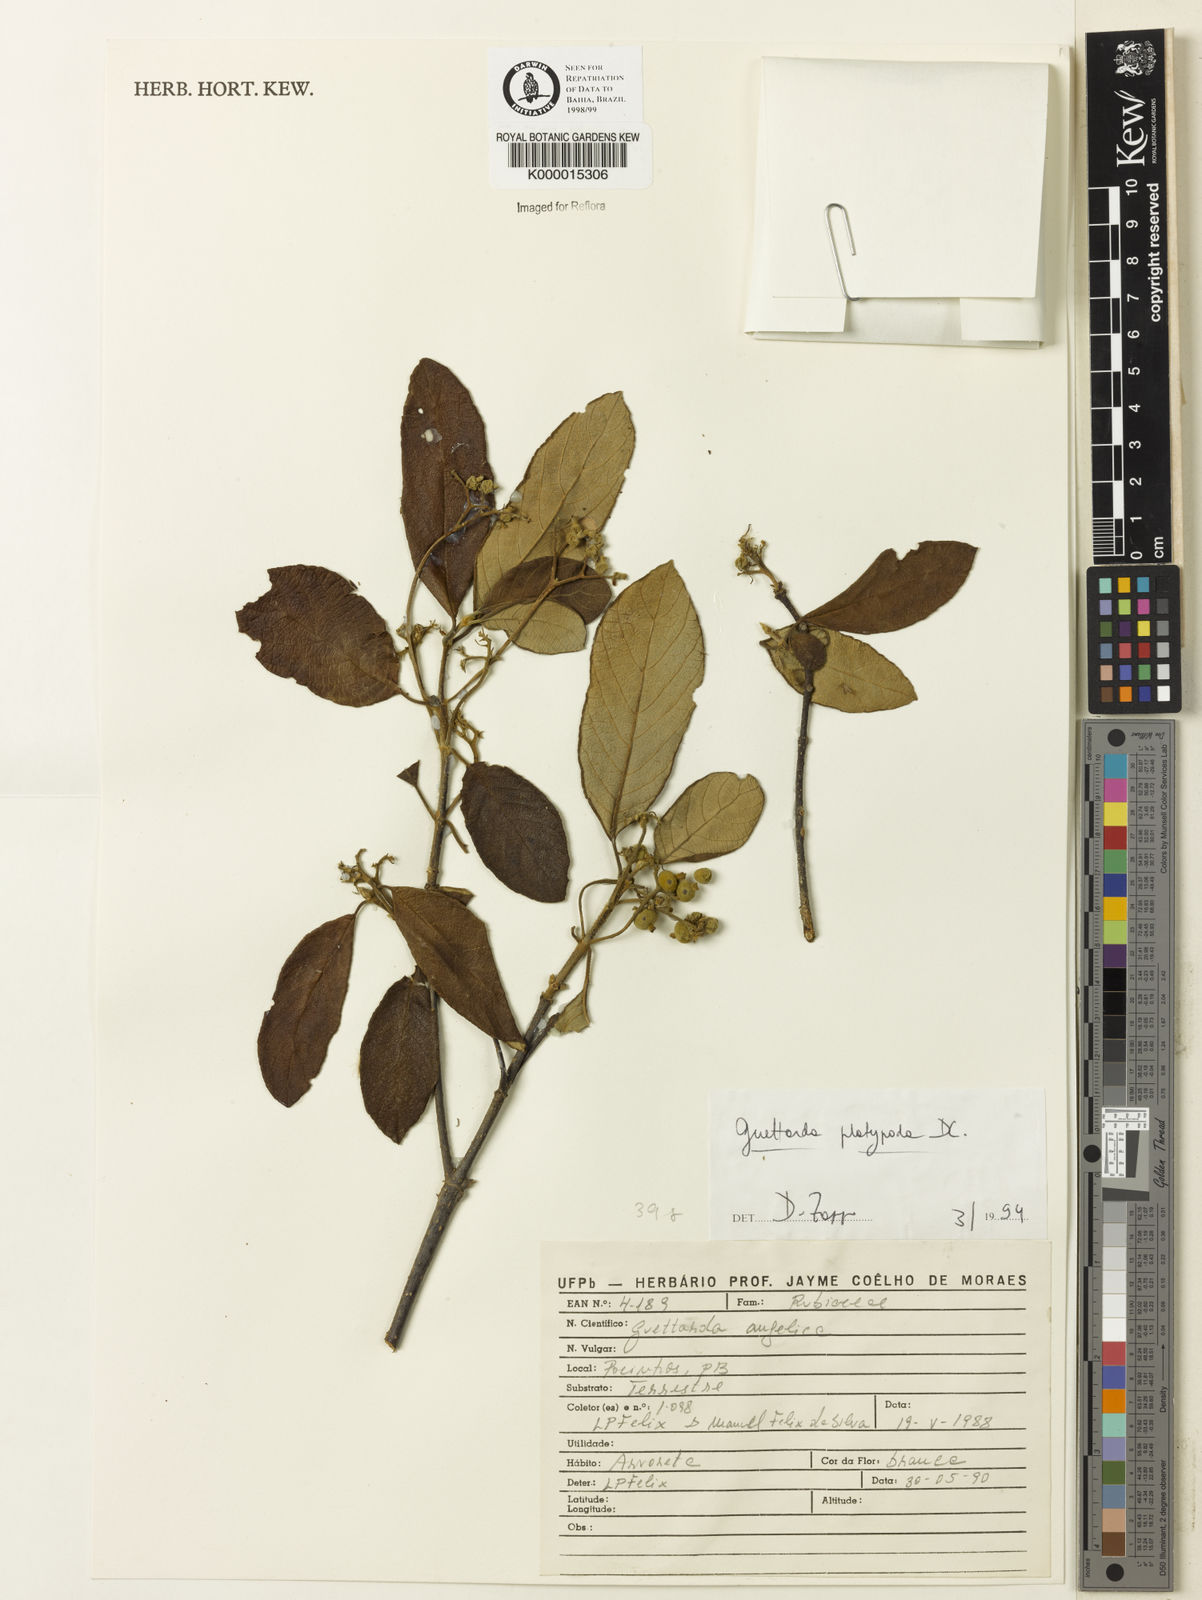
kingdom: Plantae
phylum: Tracheophyta
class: Magnoliopsida
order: Gentianales
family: Rubiaceae
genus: Guettarda
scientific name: Guettarda platypoda
